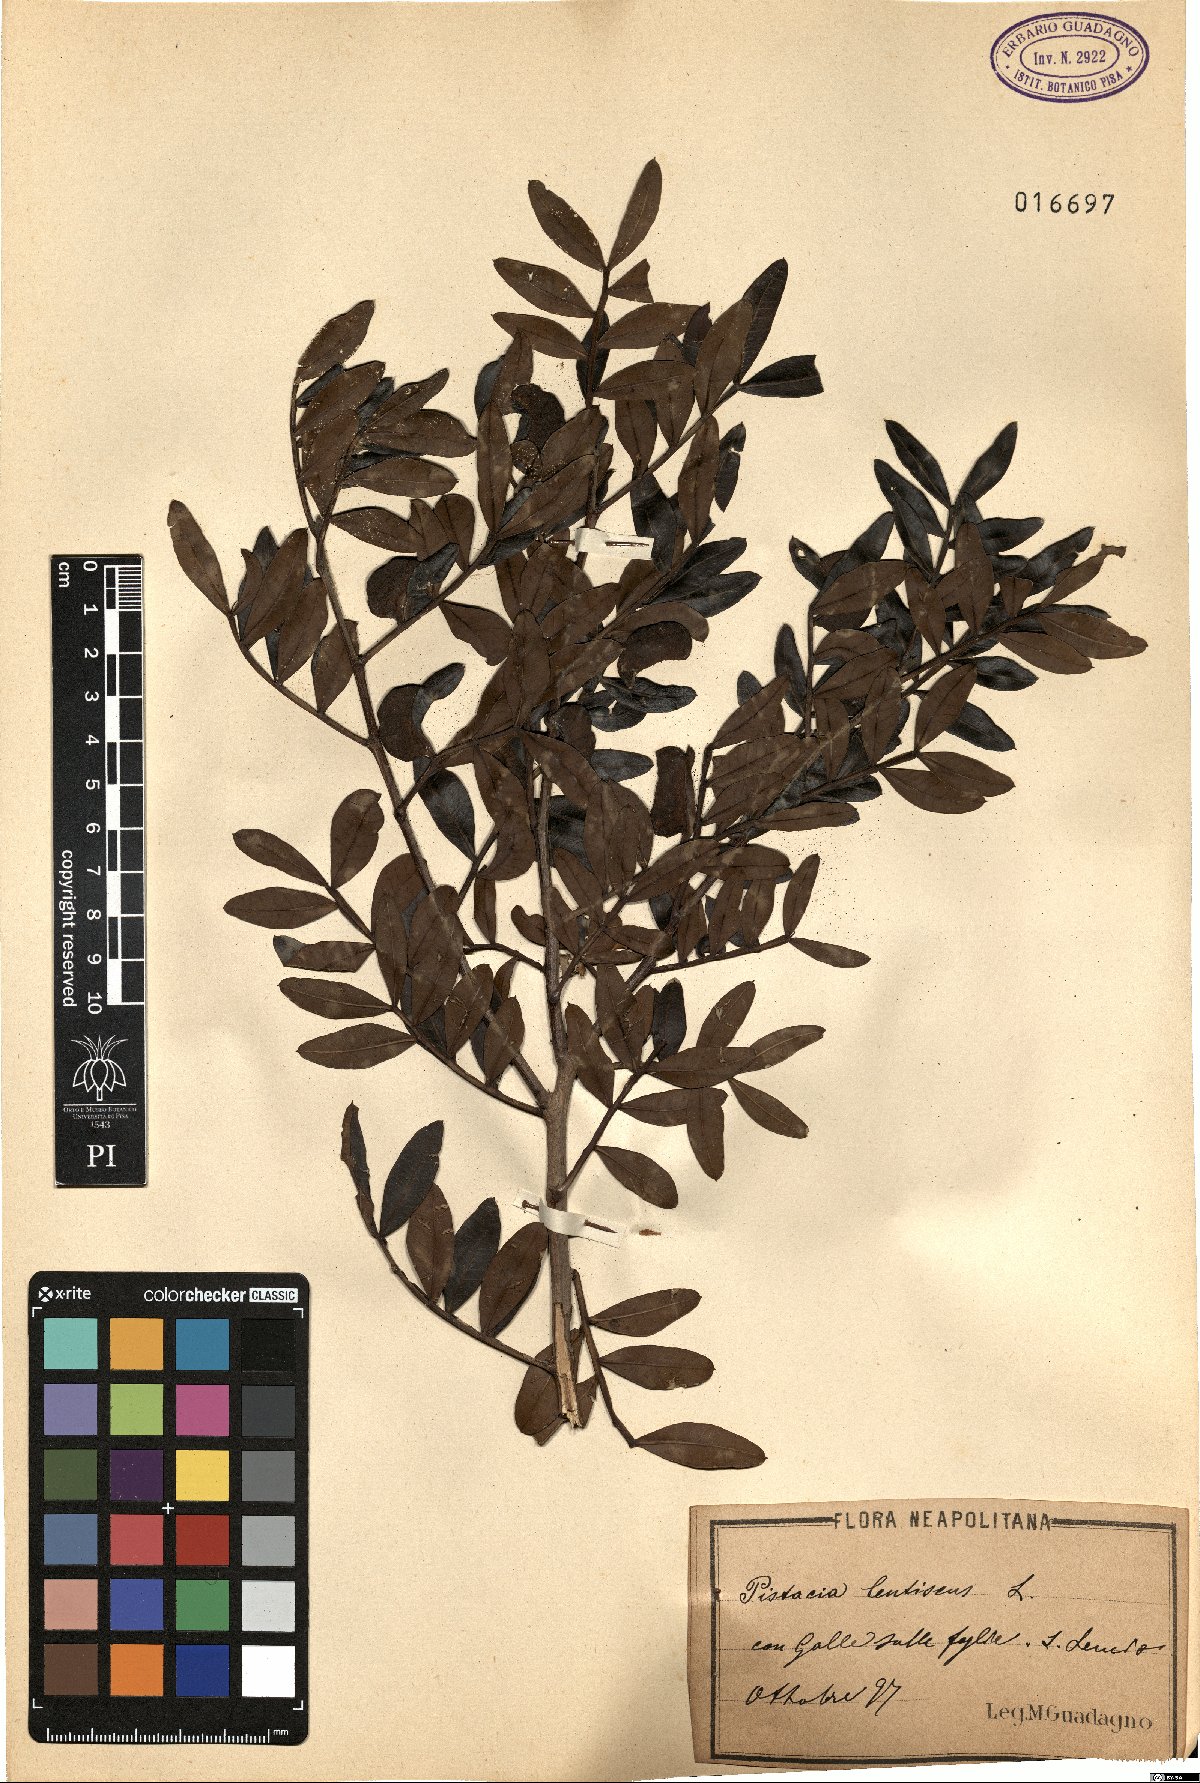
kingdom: Plantae
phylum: Tracheophyta
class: Magnoliopsida
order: Sapindales
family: Anacardiaceae
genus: Pistacia
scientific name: Pistacia lentiscus
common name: Lentisk
